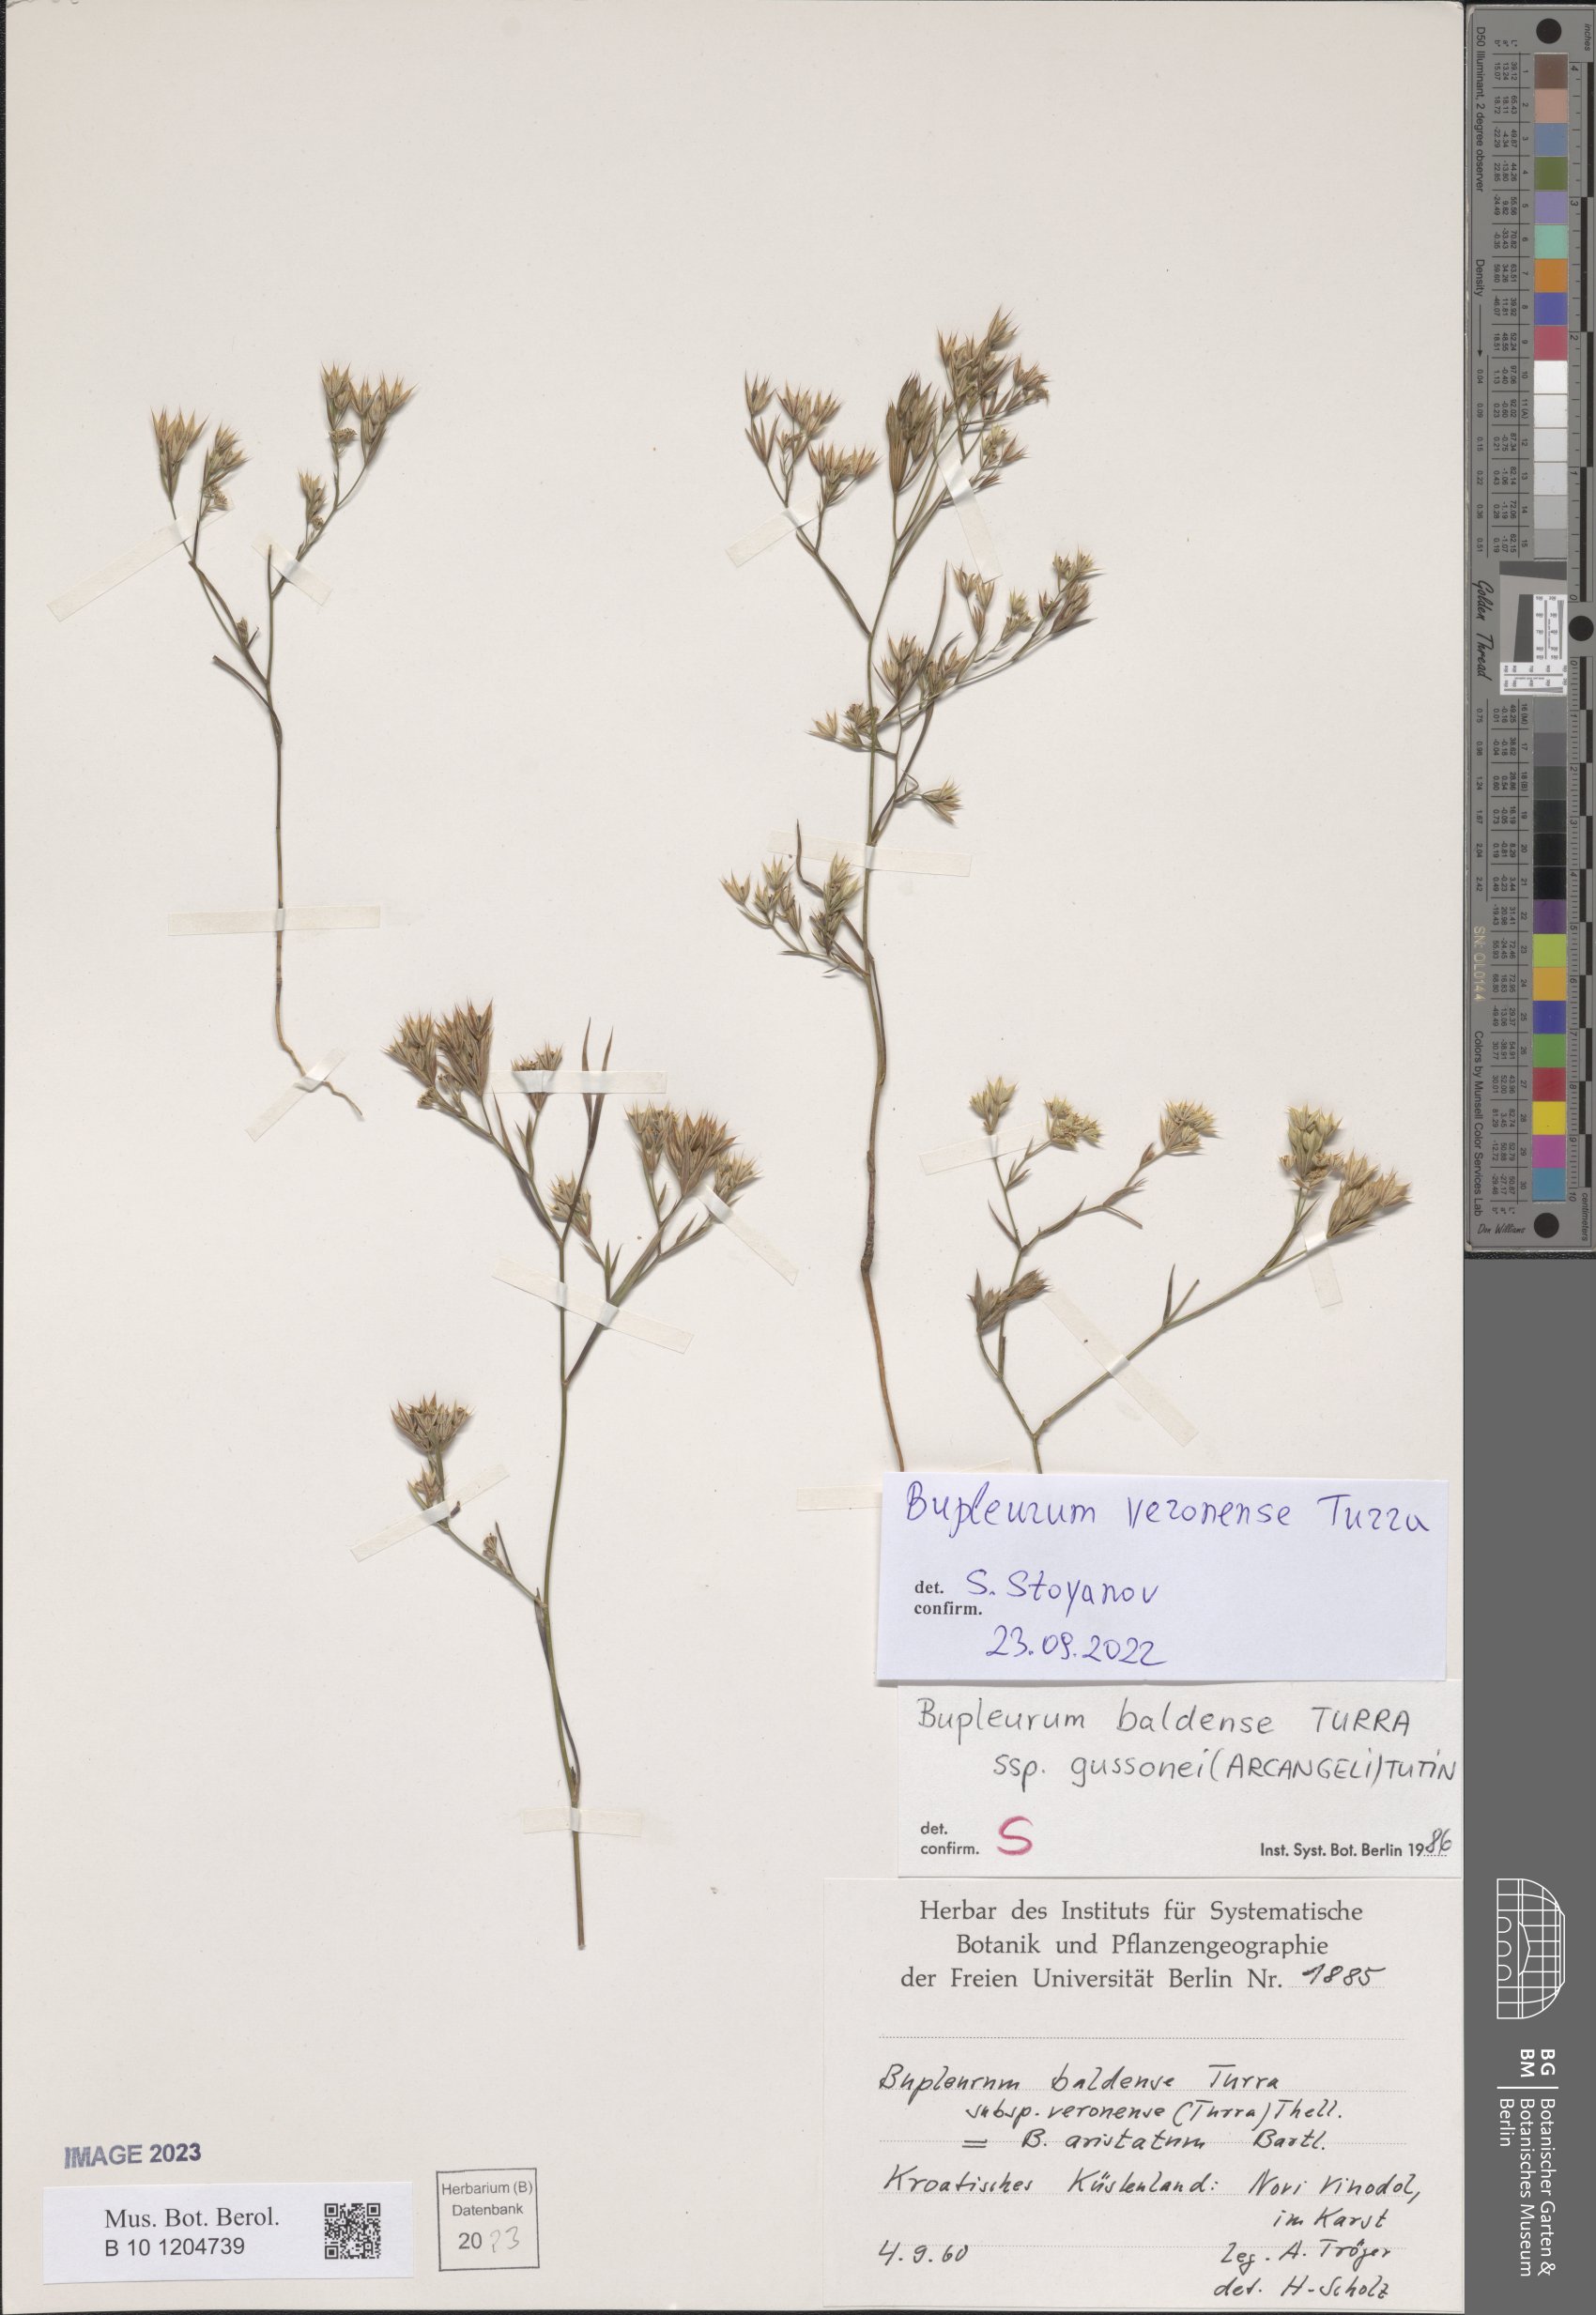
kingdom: Plantae
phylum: Tracheophyta
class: Magnoliopsida
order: Apiales
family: Apiaceae
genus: Bupleurum
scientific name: Bupleurum veronense
